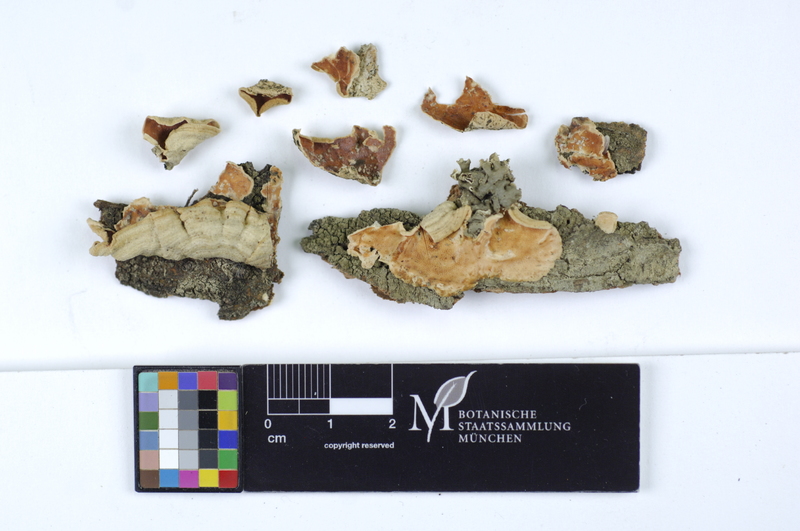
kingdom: Fungi
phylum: Basidiomycota
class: Agaricomycetes
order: Polyporales
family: Irpicaceae
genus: Byssomerulius
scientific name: Byssomerulius corium
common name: Netted crust
